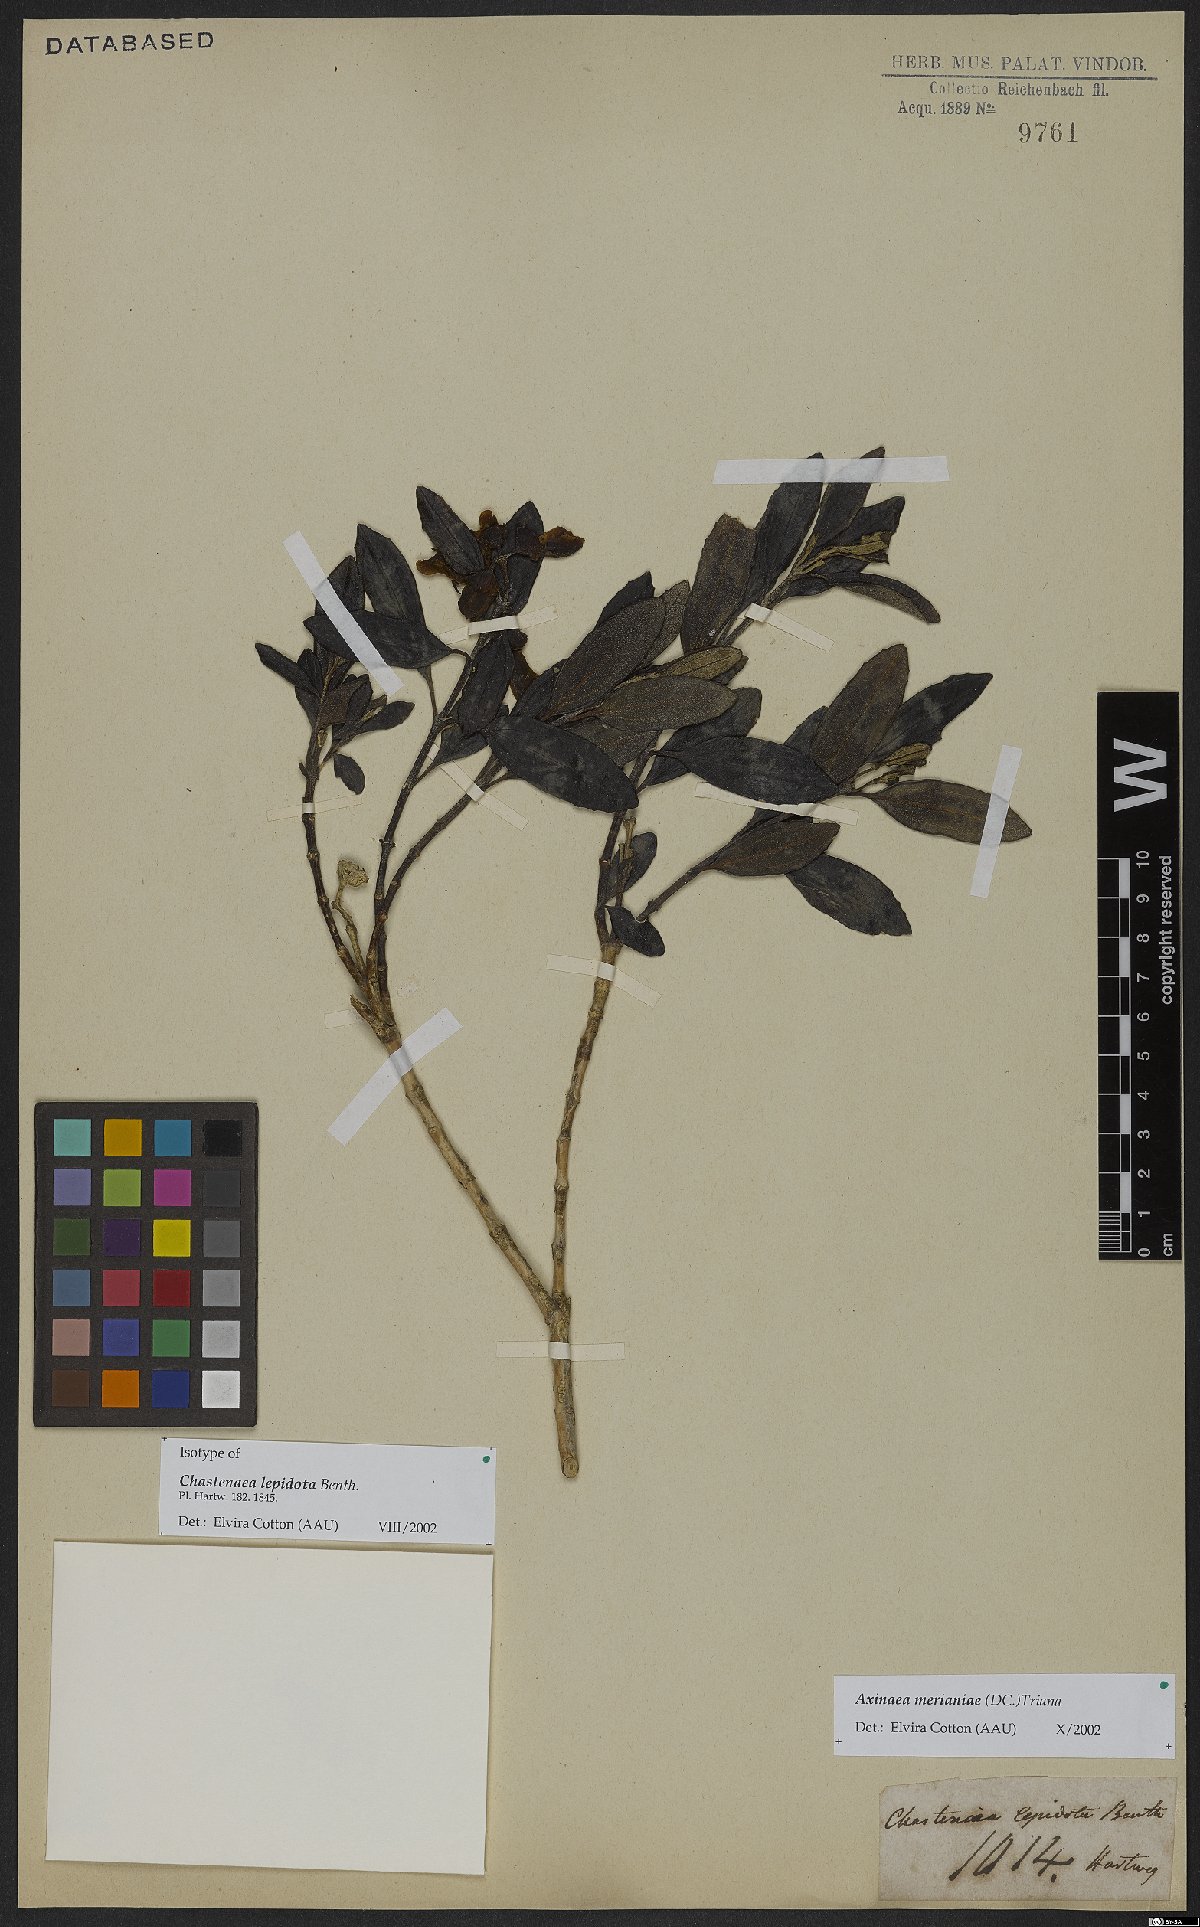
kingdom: Plantae
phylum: Tracheophyta
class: Magnoliopsida
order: Myrtales
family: Melastomataceae
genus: Axinaea
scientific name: Axinaea merianiae
